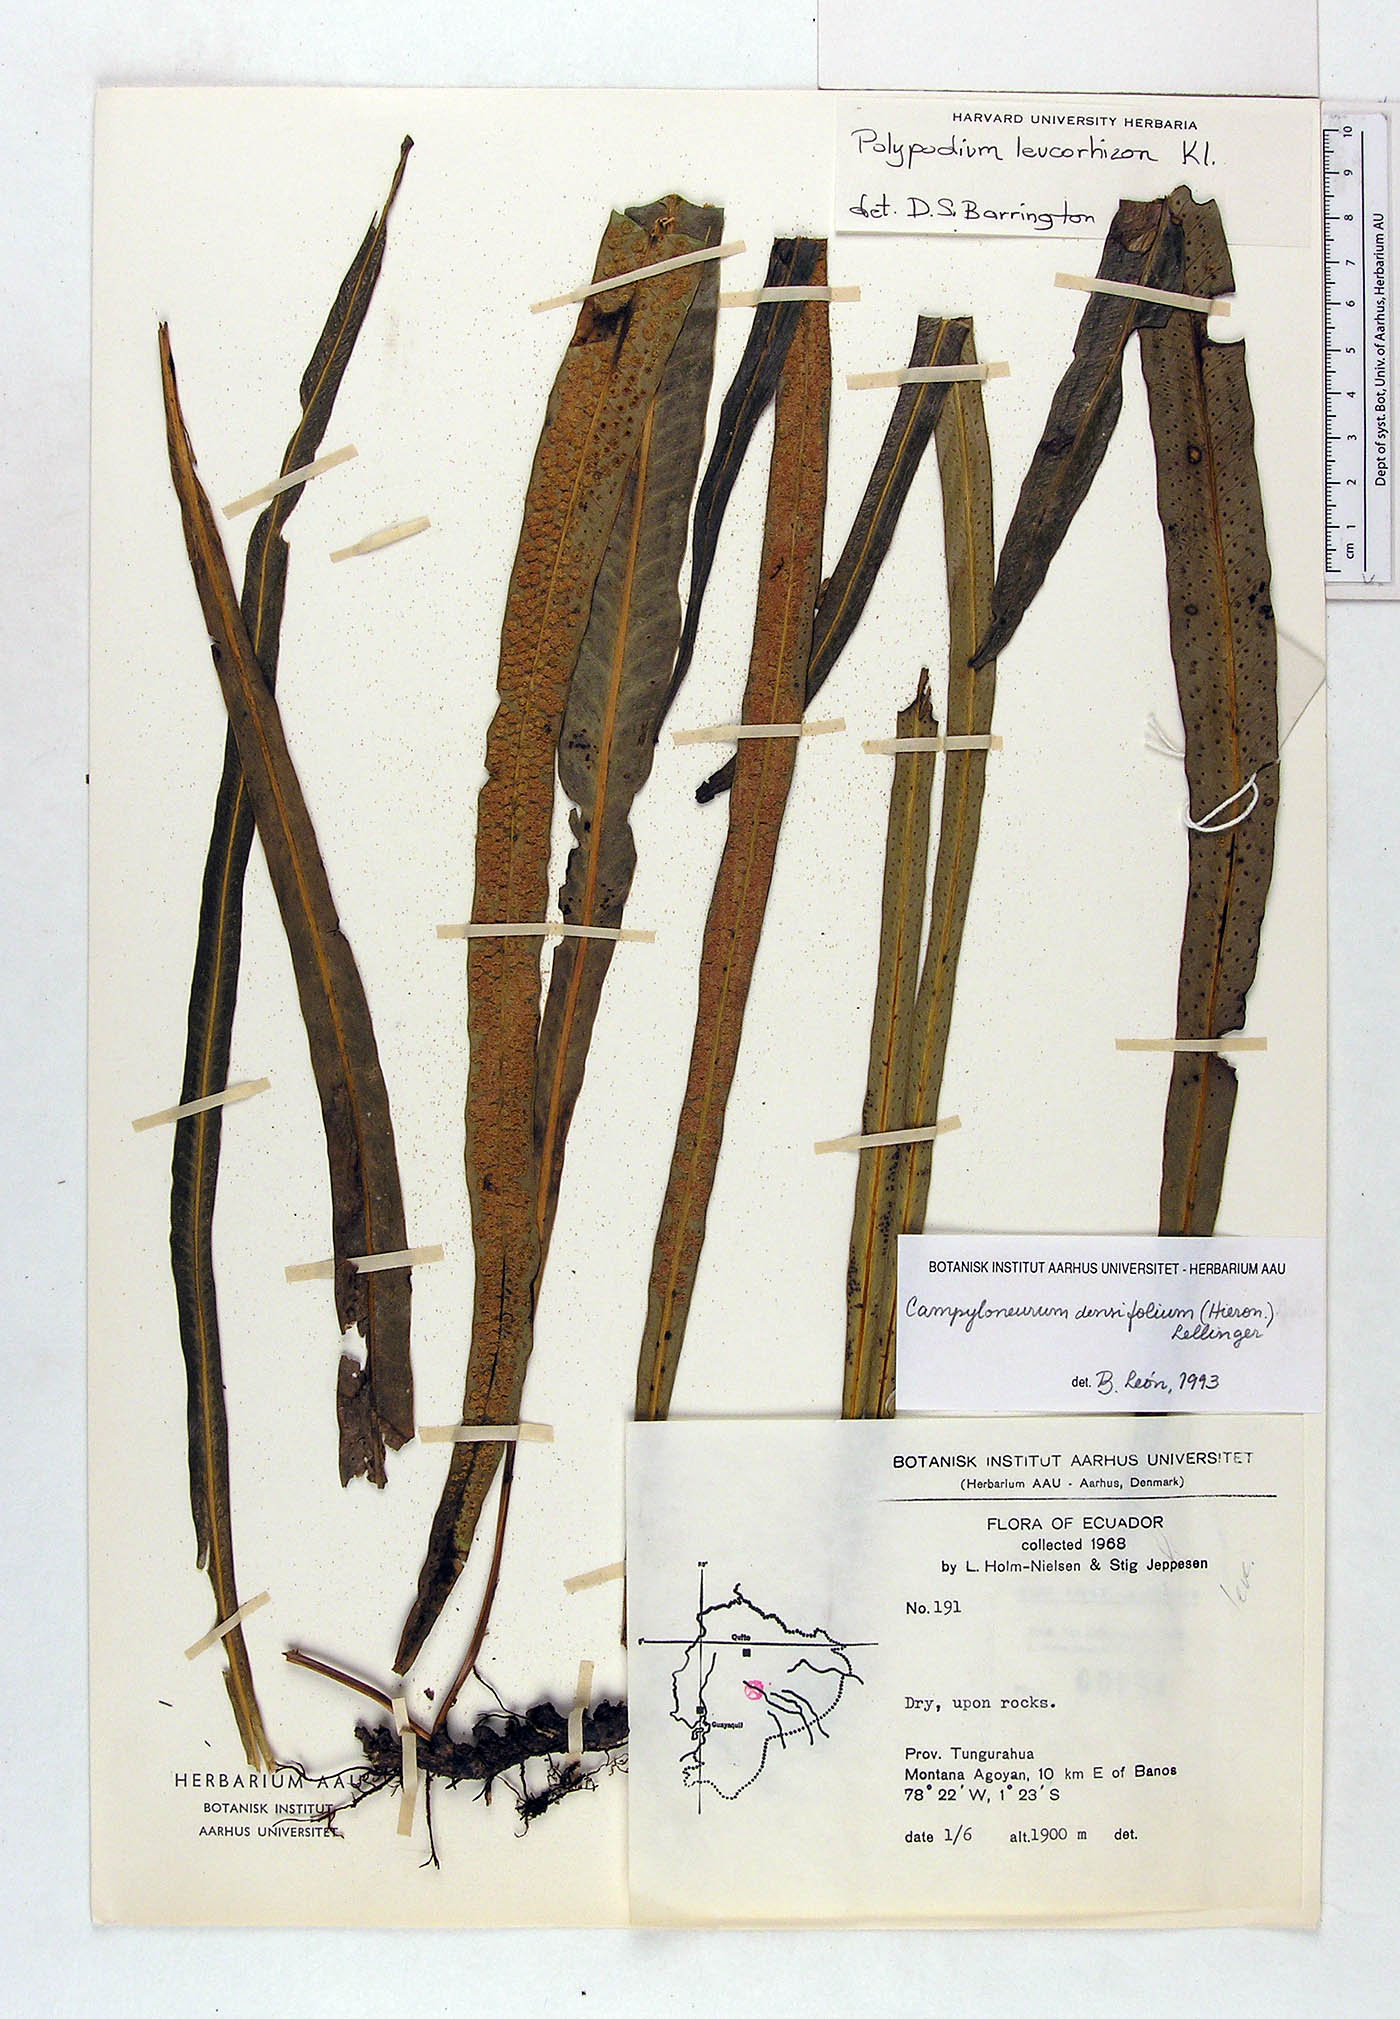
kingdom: Plantae
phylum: Tracheophyta
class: Polypodiopsida
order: Polypodiales
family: Polypodiaceae
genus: Campyloneurum
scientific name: Campyloneurum densifolium
